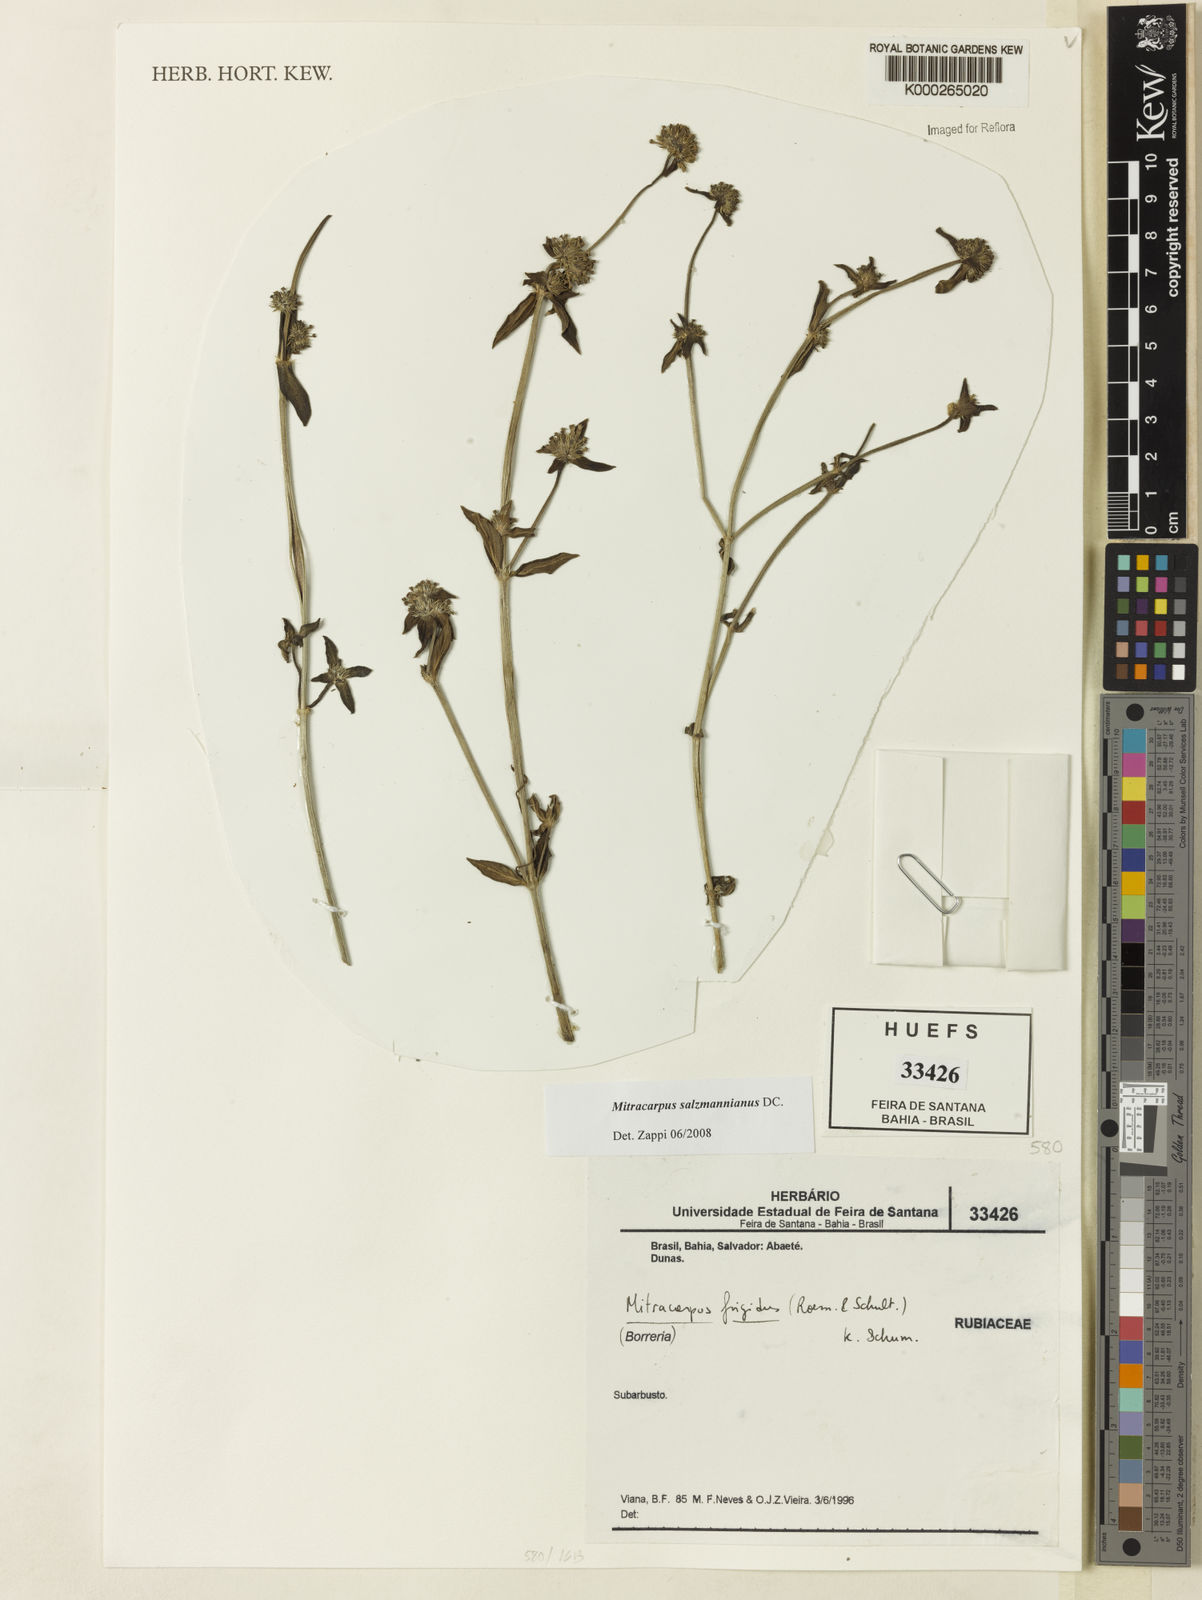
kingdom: Plantae
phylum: Tracheophyta
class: Magnoliopsida
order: Gentianales
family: Rubiaceae
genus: Mitracarpus
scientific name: Mitracarpus salzmannianus
